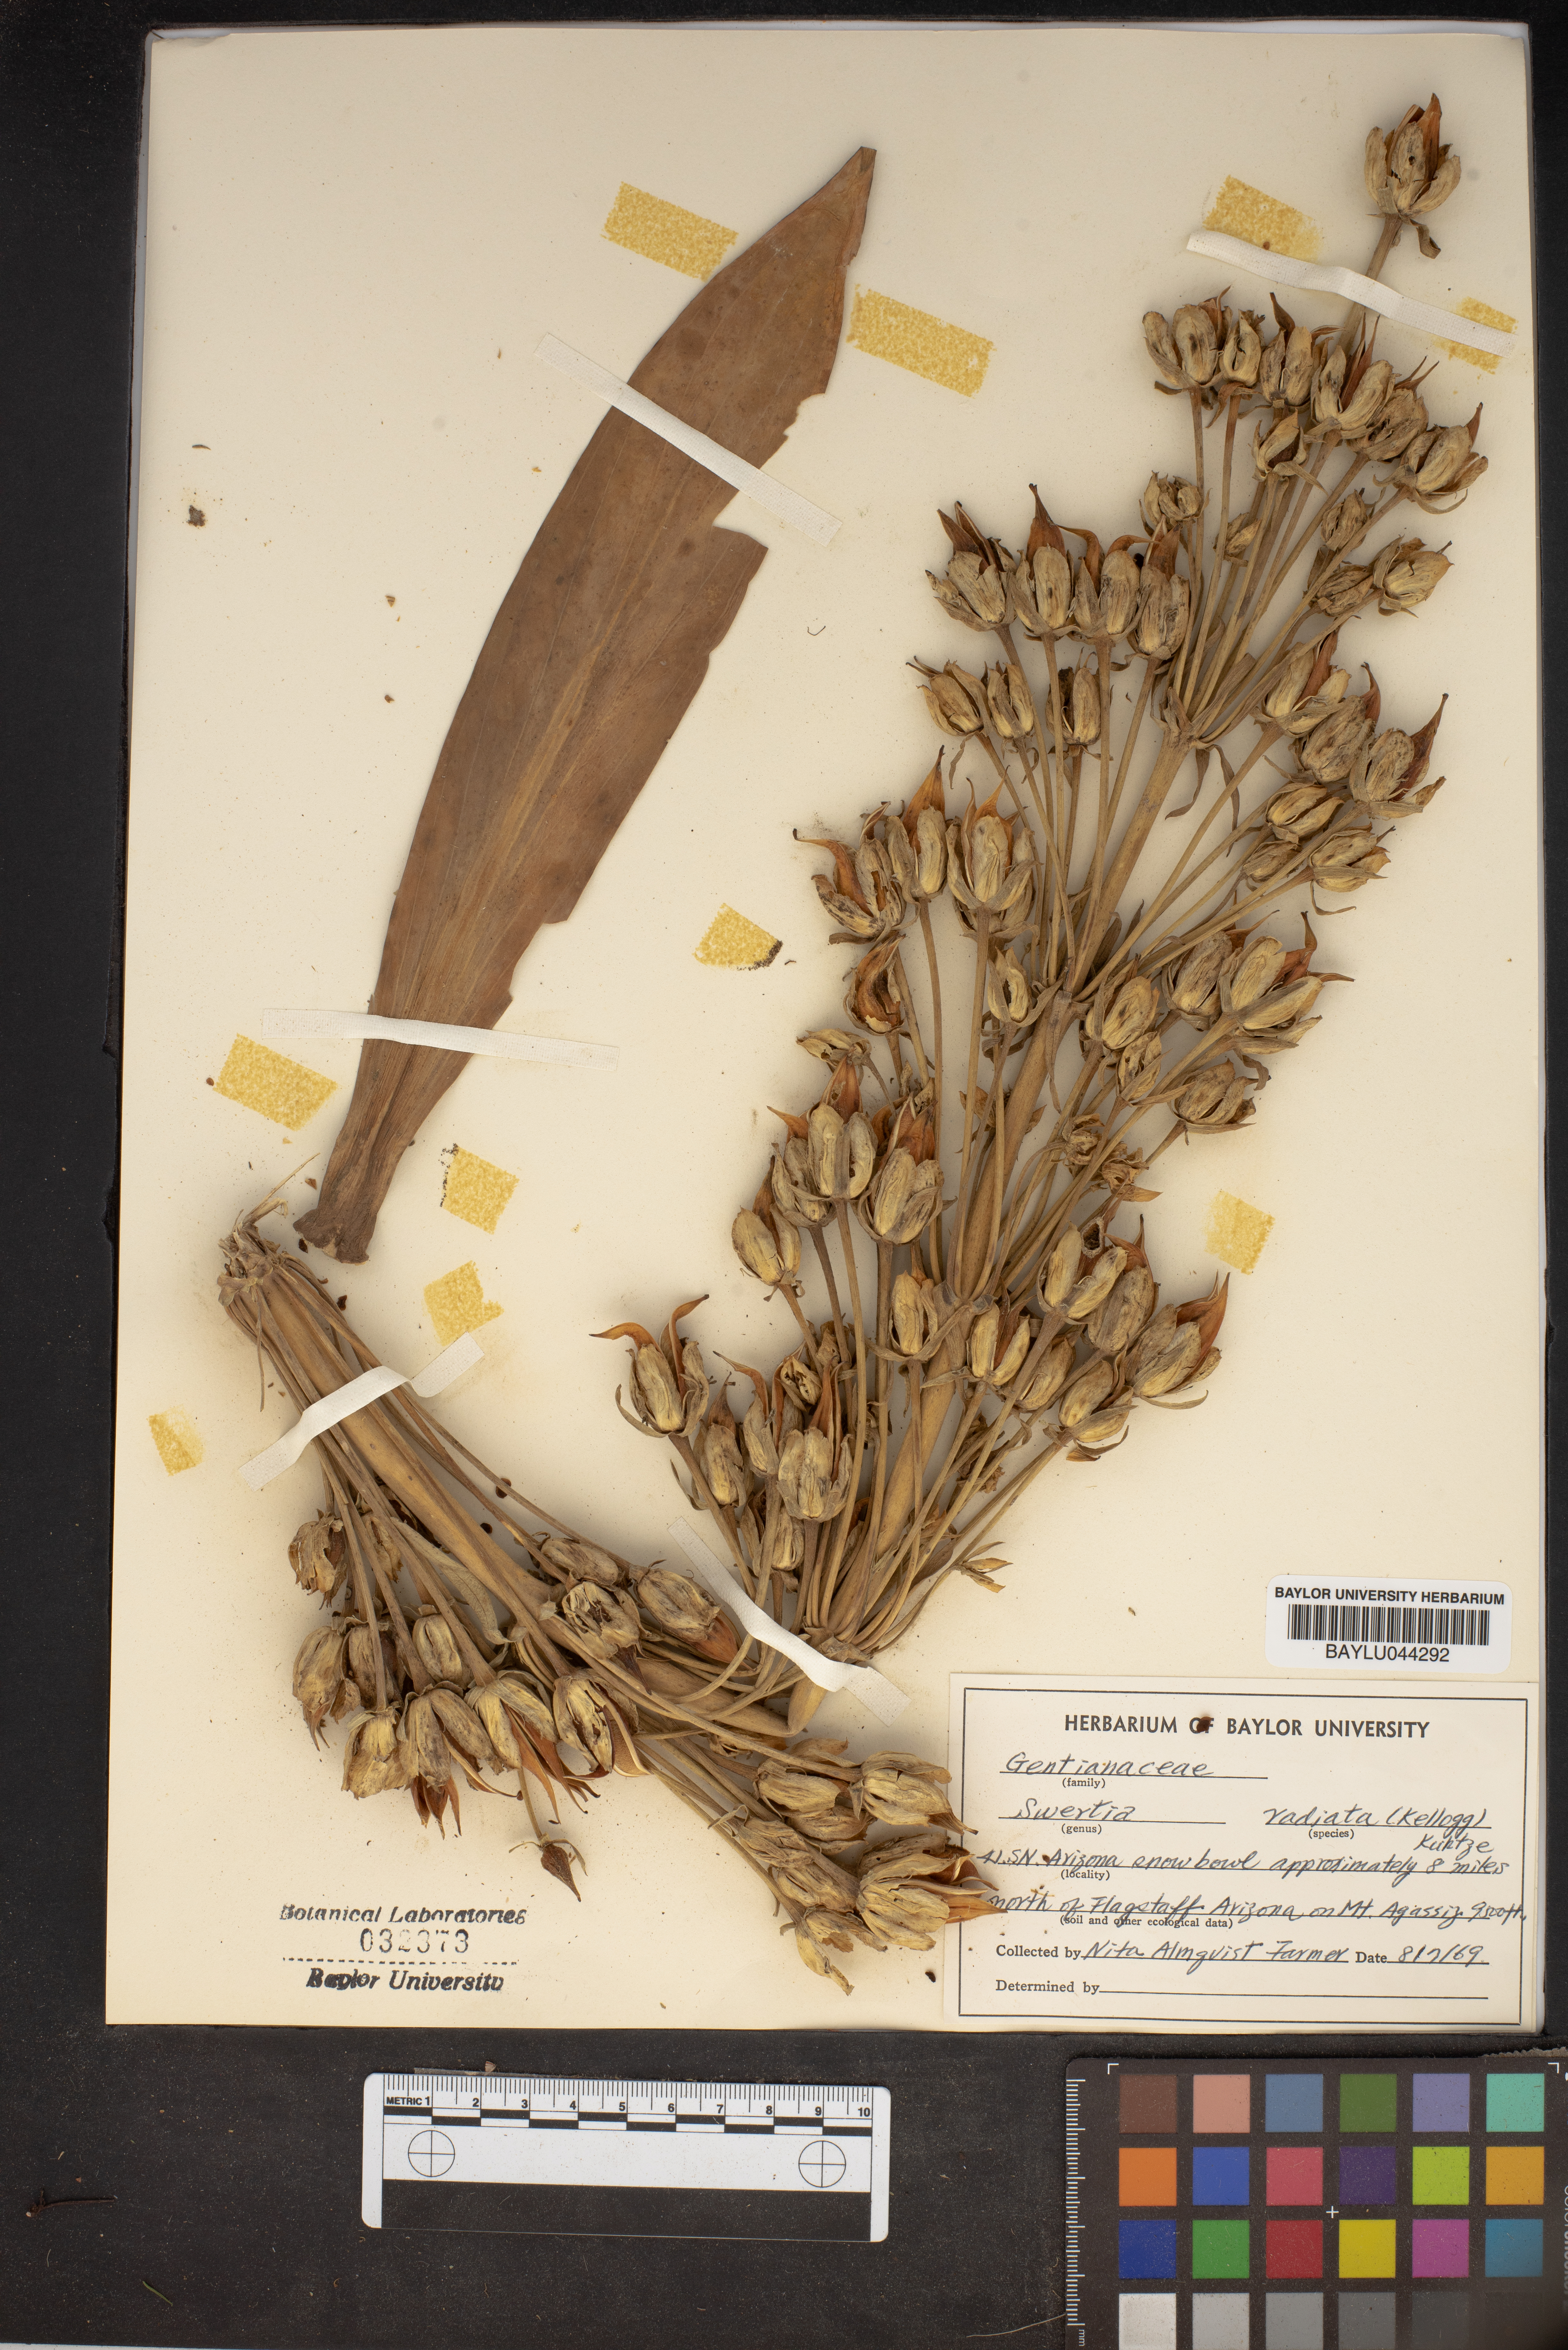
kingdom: Plantae
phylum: Tracheophyta
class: Magnoliopsida
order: Gentianales
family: Gentianaceae
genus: Frasera
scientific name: Frasera speciosa
